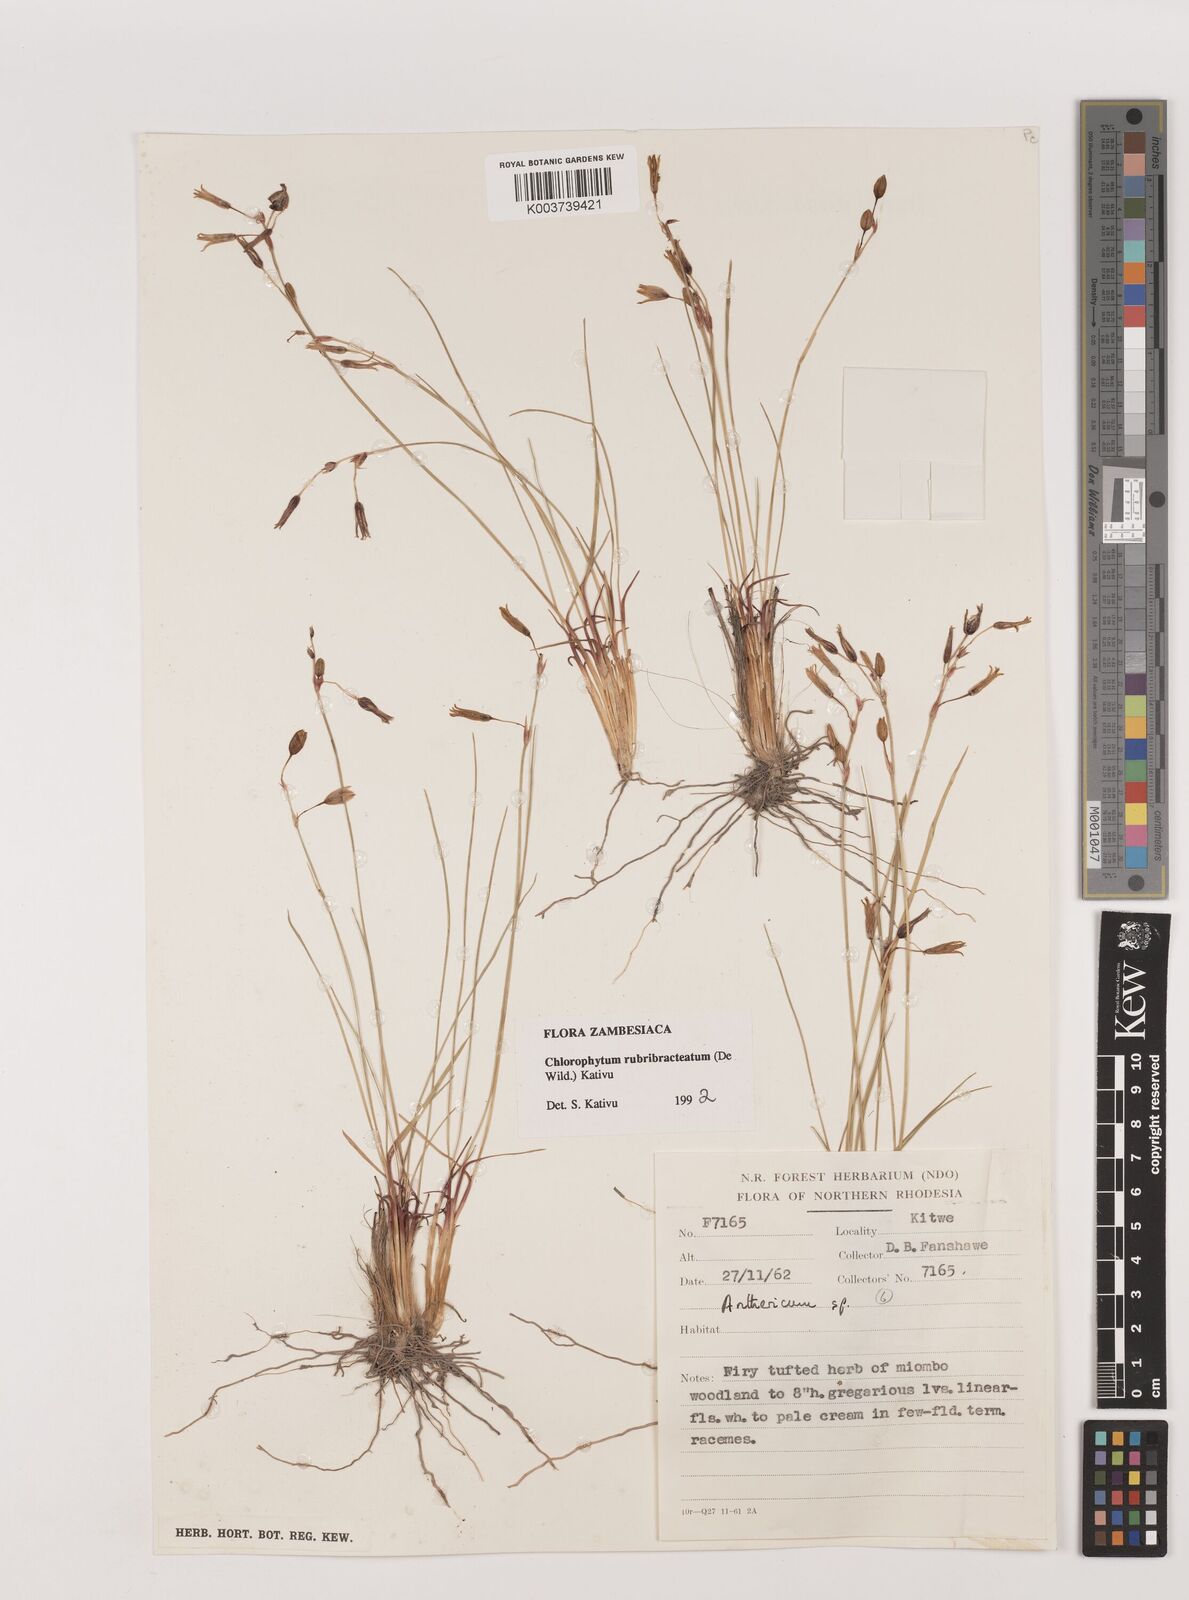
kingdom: Plantae
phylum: Tracheophyta
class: Liliopsida
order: Asparagales
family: Asparagaceae
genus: Chlorophytum
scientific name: Chlorophytum rubribracteatum
